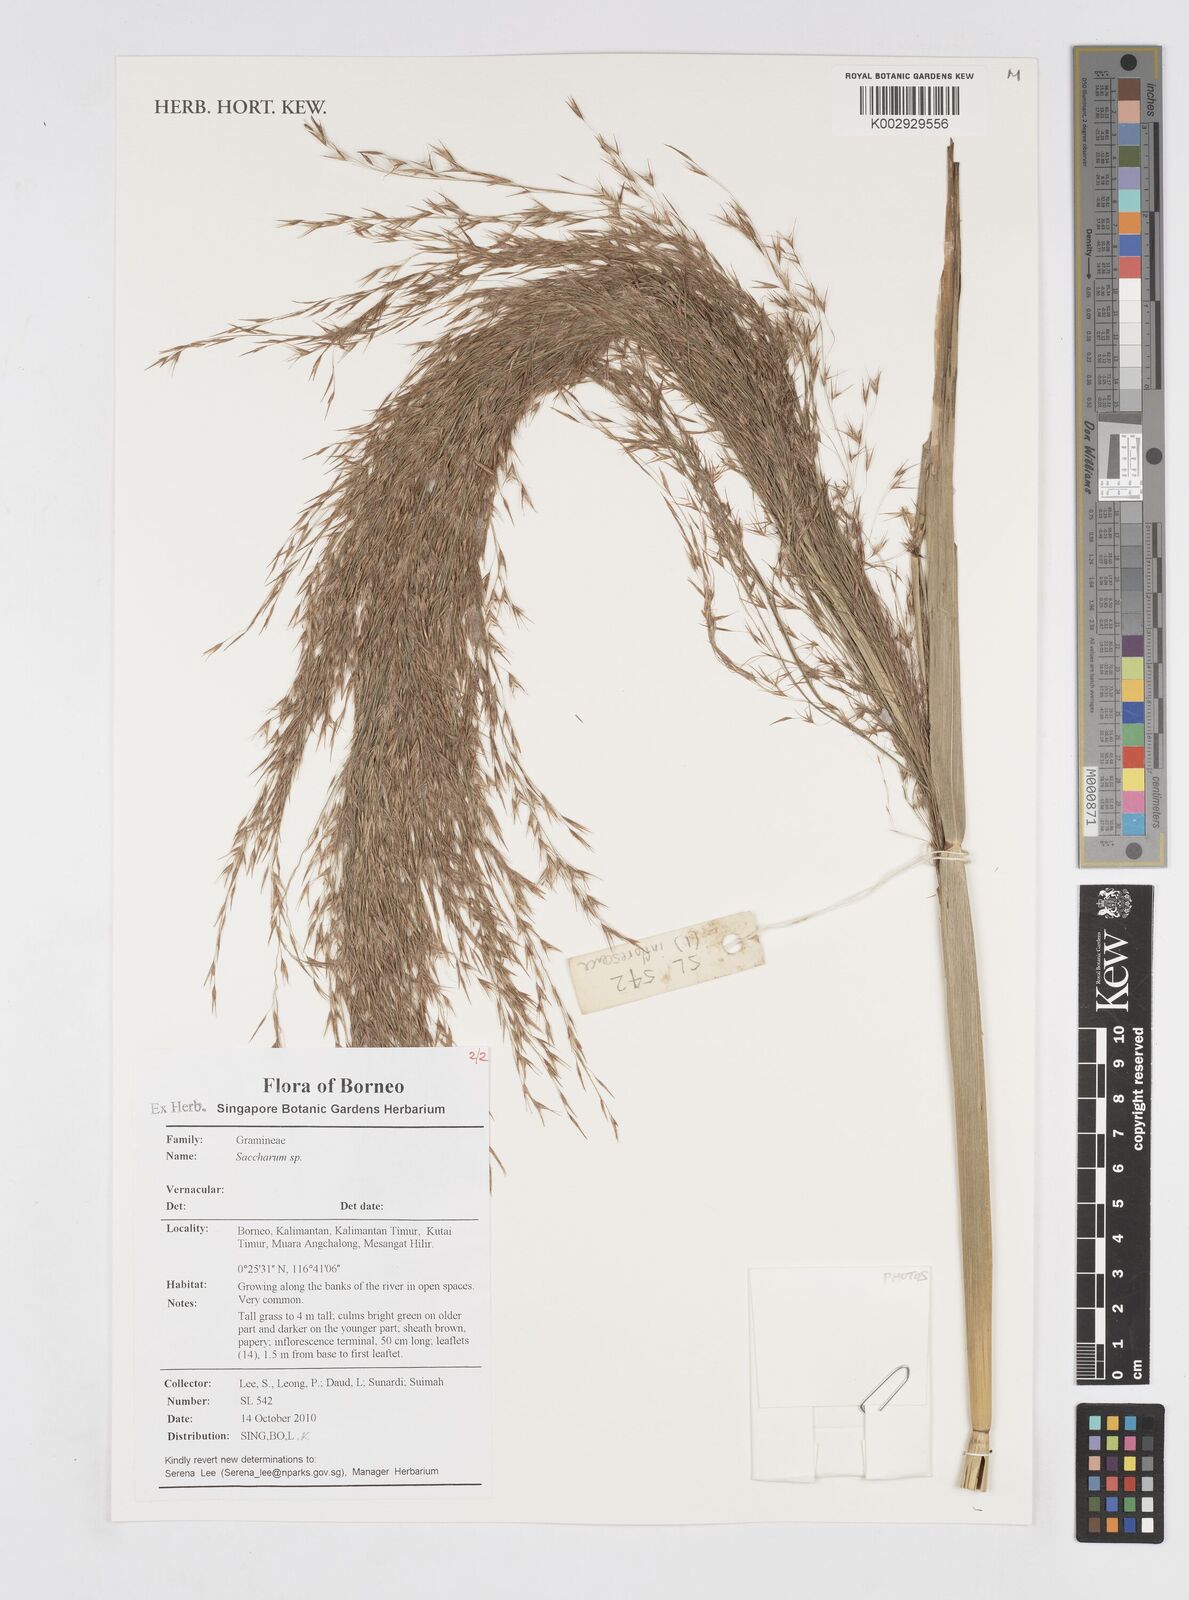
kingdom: Plantae
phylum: Tracheophyta
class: Liliopsida
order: Poales
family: Poaceae
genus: Saccharum
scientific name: Saccharum
